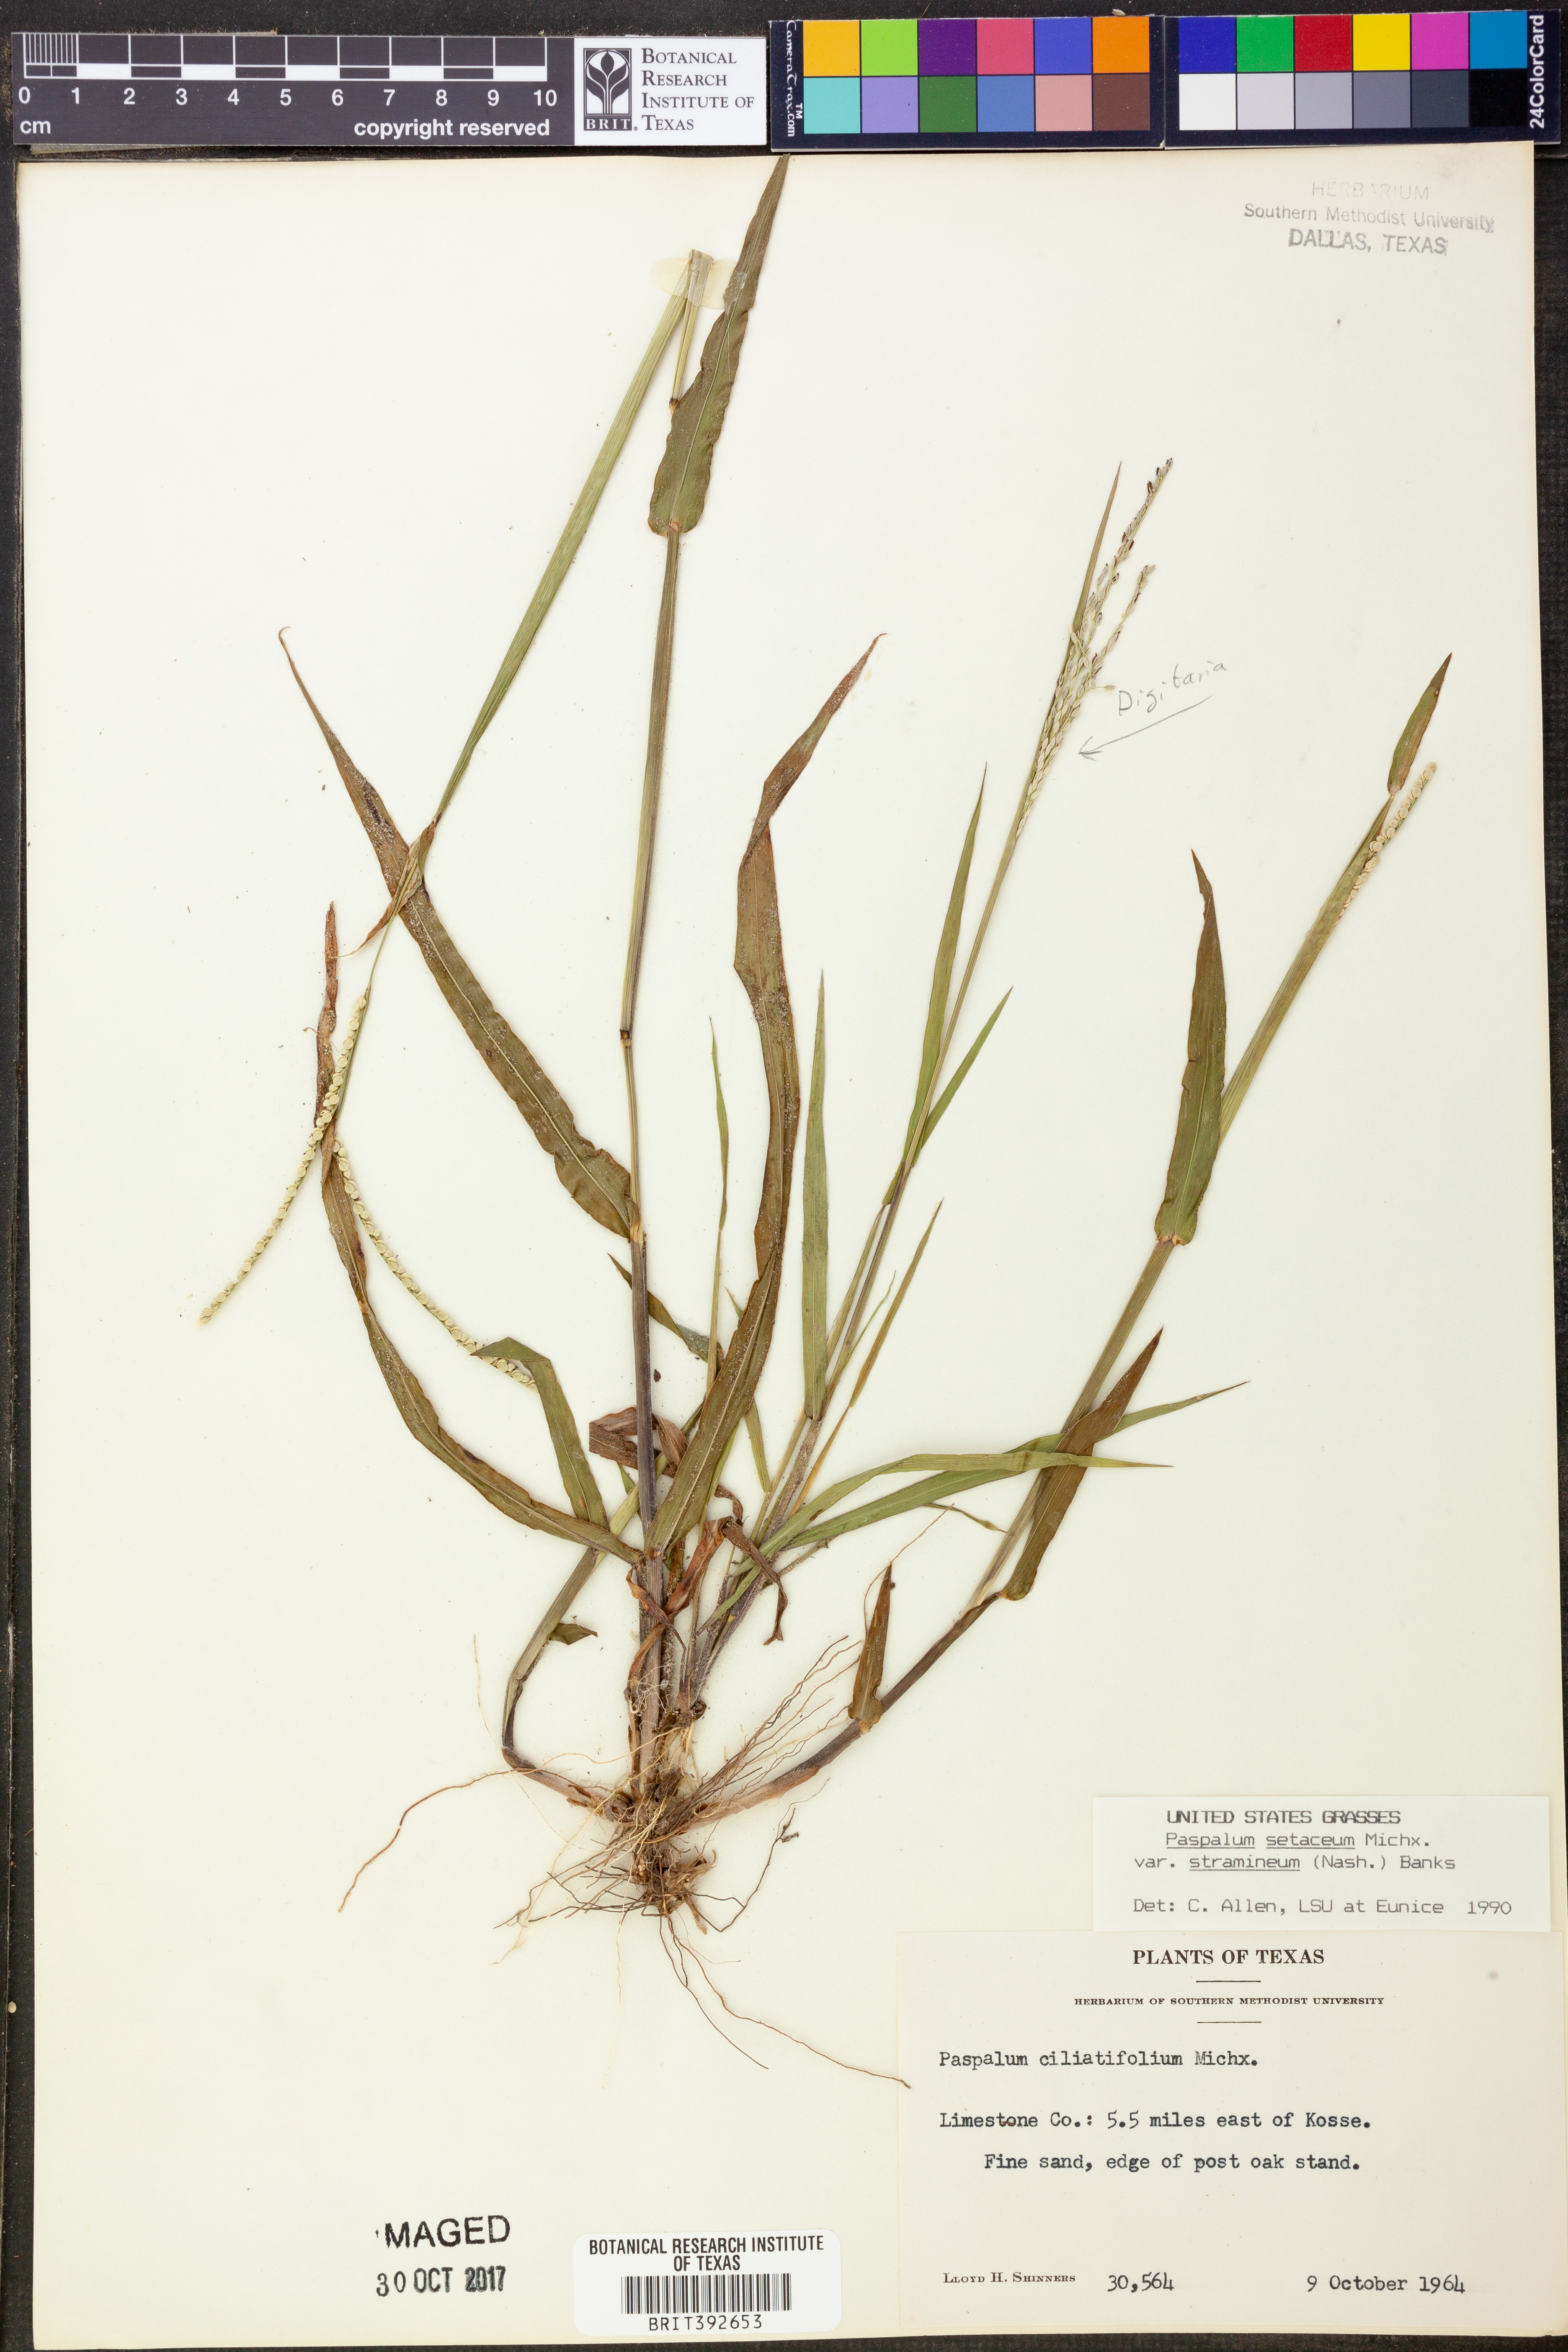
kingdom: Plantae
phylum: Tracheophyta
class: Liliopsida
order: Poales
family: Poaceae
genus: Paspalum
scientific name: Paspalum setaceum
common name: Slender paspalum
